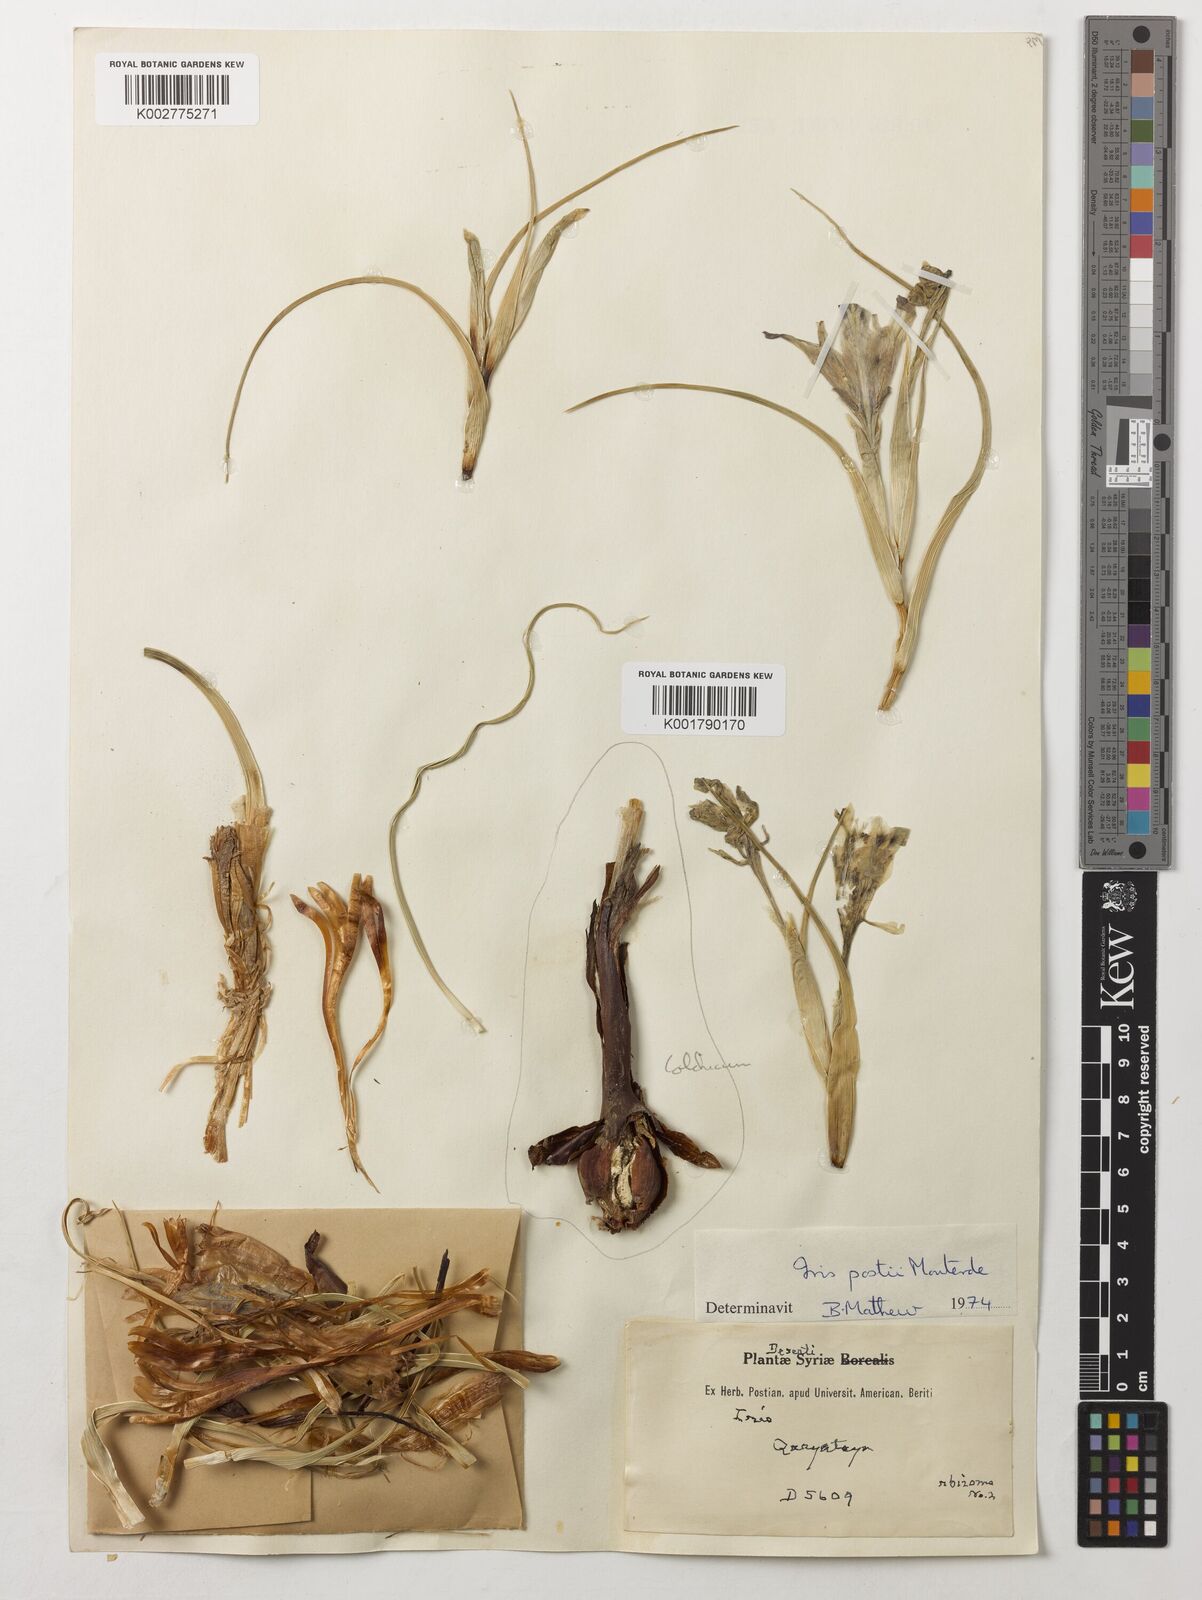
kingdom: Plantae
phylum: Tracheophyta
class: Liliopsida
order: Liliales
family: Colchicaceae
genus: Colchicum
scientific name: Colchicum
